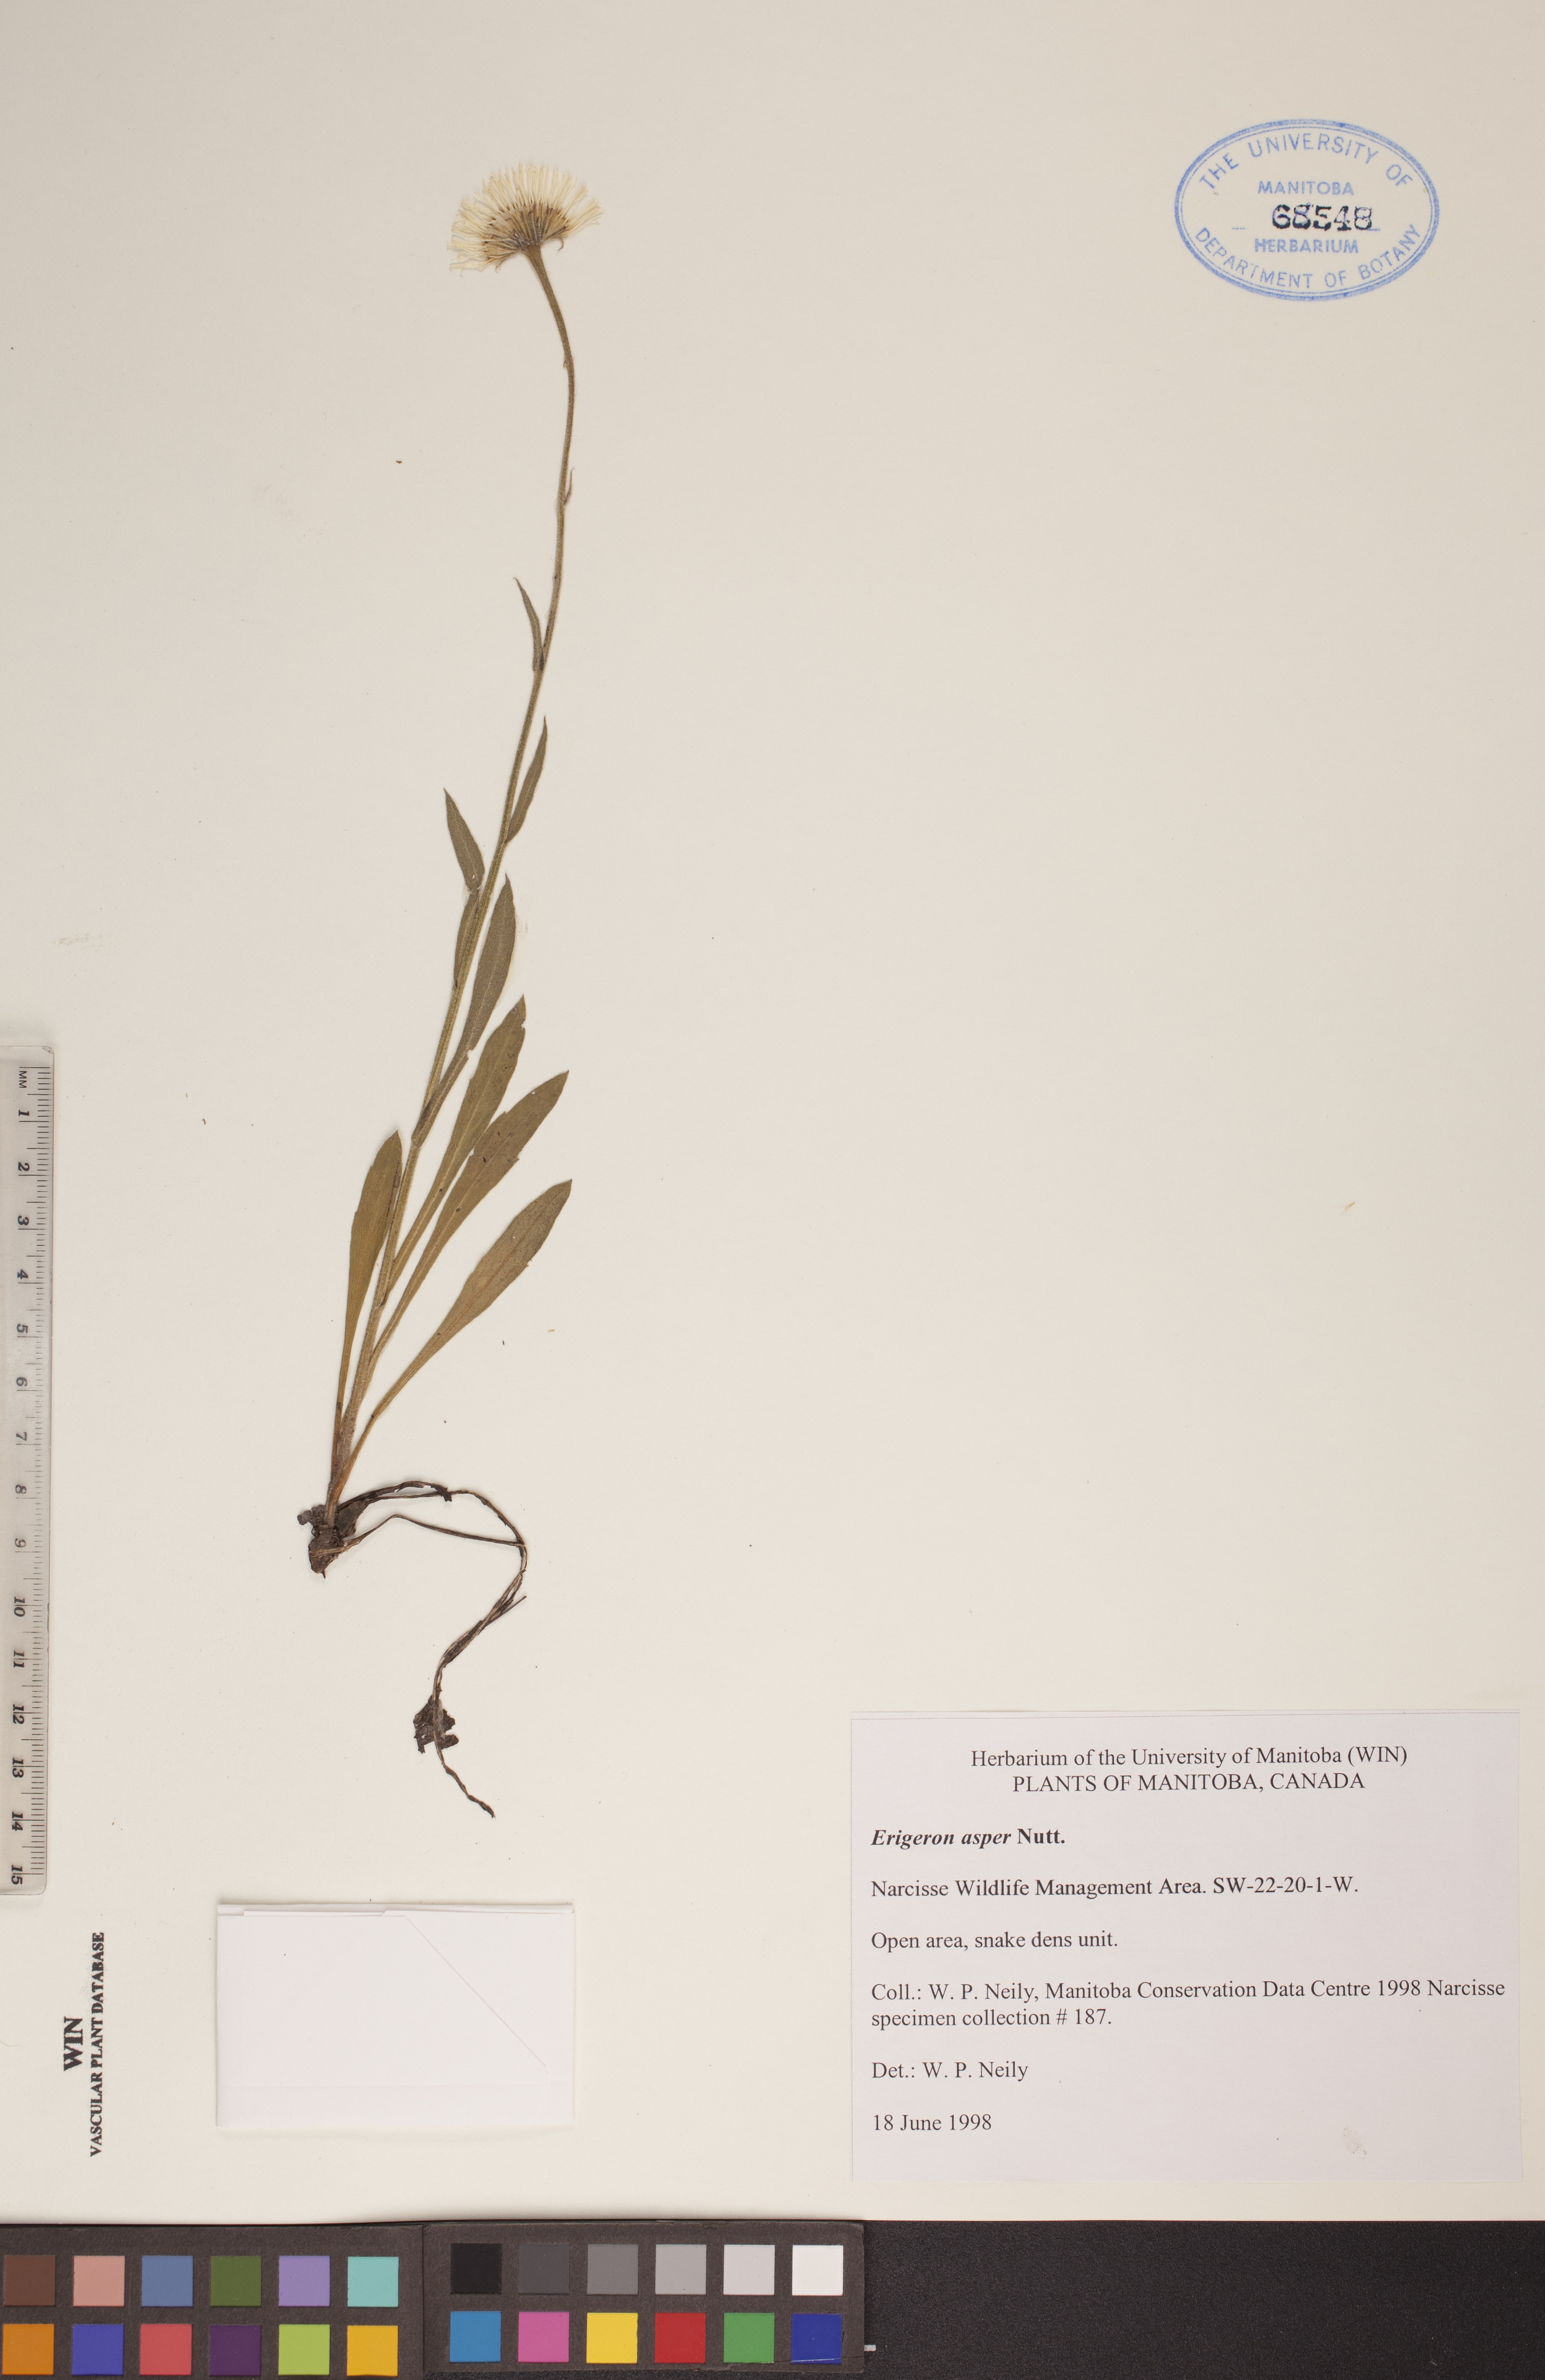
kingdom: Plantae
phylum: Tracheophyta
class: Magnoliopsida
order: Asterales
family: Asteraceae
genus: Erigeron
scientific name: Erigeron glabellus
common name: Smooth fleabane
